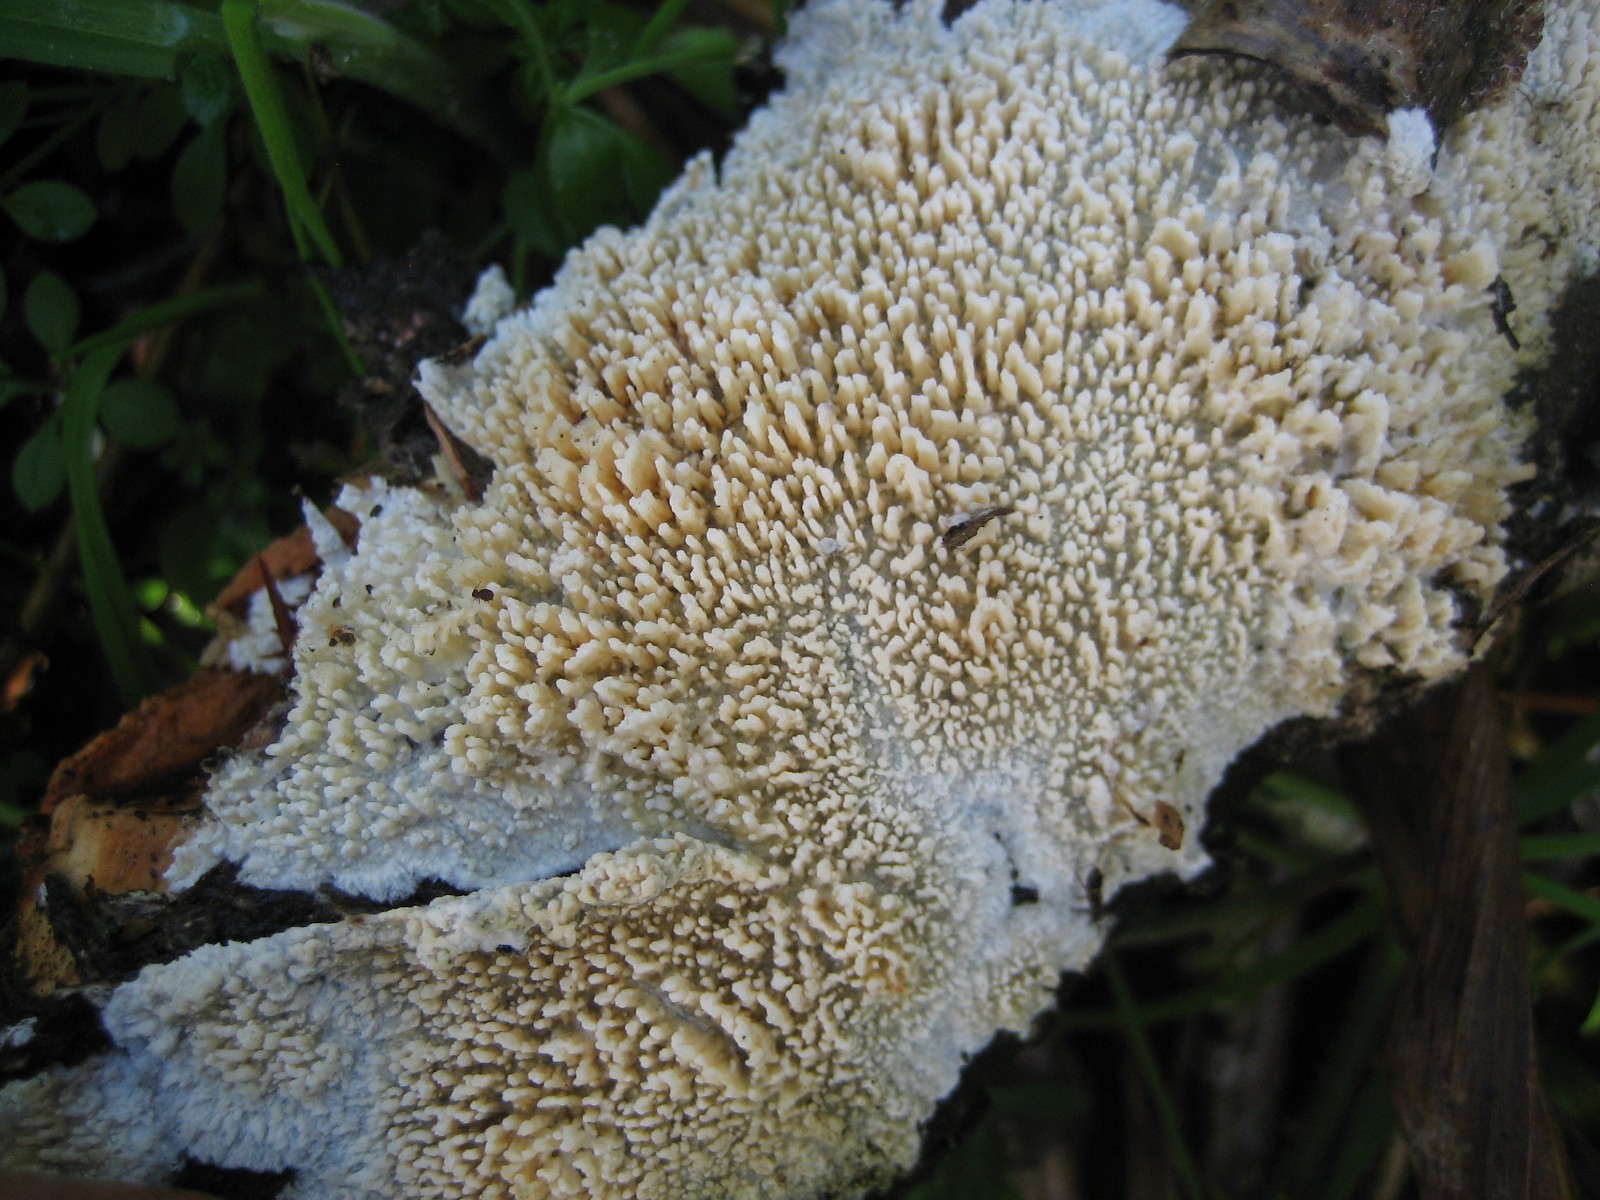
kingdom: Fungi
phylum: Basidiomycota
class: Agaricomycetes
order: Hymenochaetales
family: Schizoporaceae
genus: Xylodon
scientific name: Xylodon radula
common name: grovtandet kalkskind
